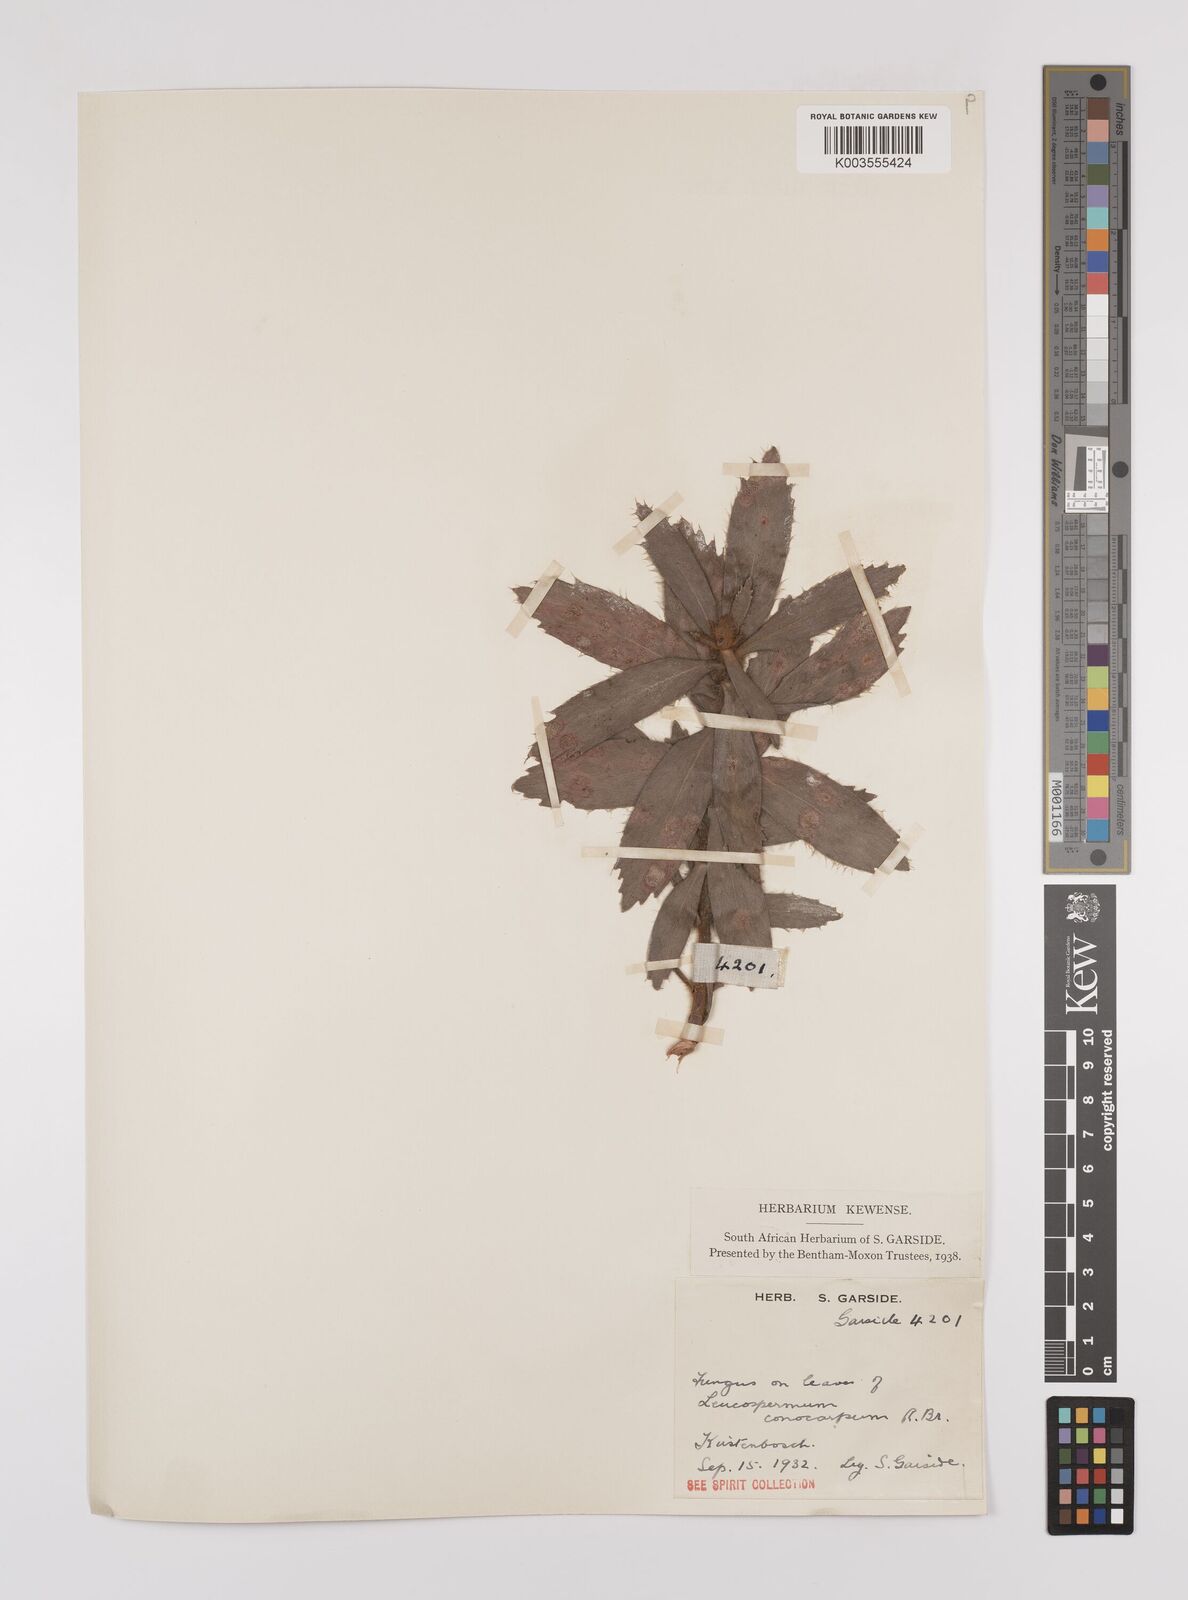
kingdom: Plantae
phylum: Tracheophyta
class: Magnoliopsida
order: Proteales
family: Proteaceae
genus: Leucospermum
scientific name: Leucospermum conocarpodendron
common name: Tree pincushion
